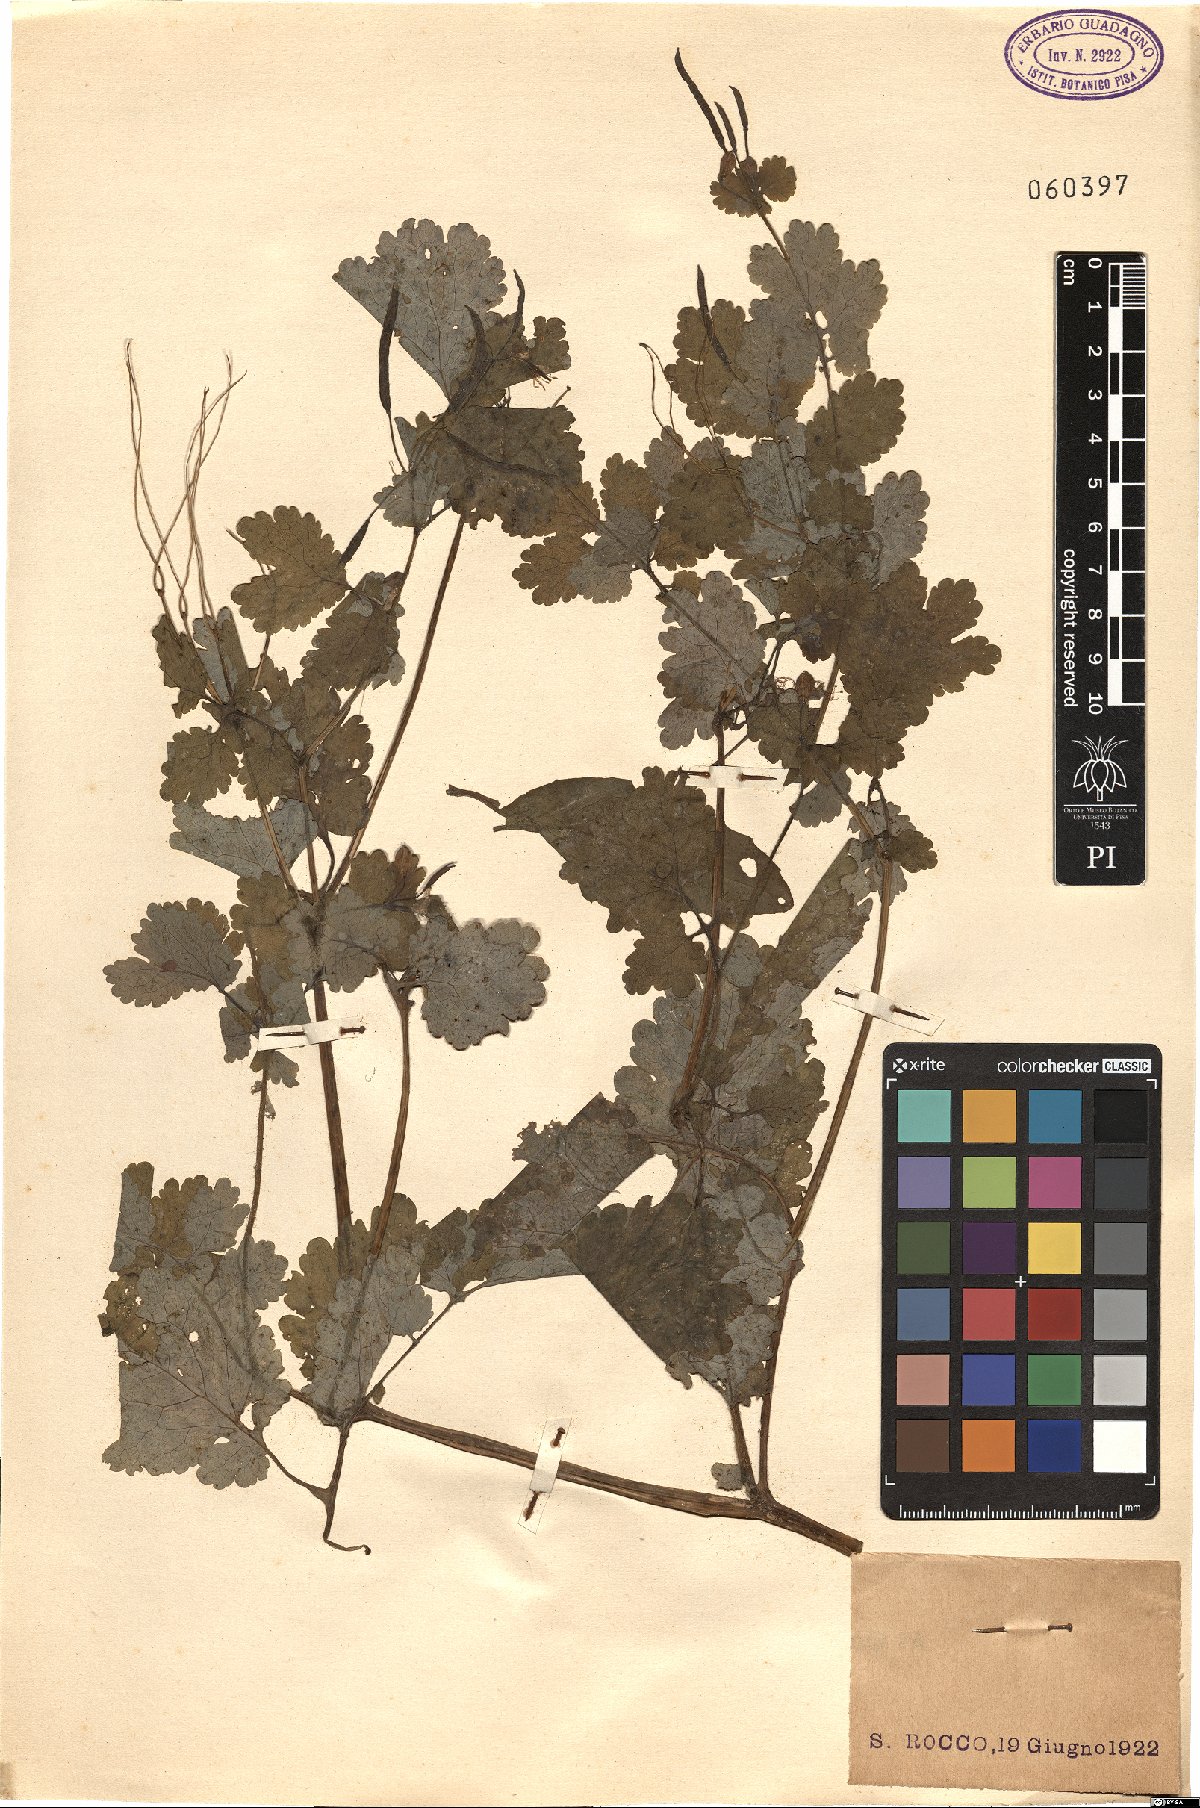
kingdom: Plantae
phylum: Tracheophyta
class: Magnoliopsida
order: Ranunculales
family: Papaveraceae
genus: Chelidonium
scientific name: Chelidonium majus
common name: Greater celandine
